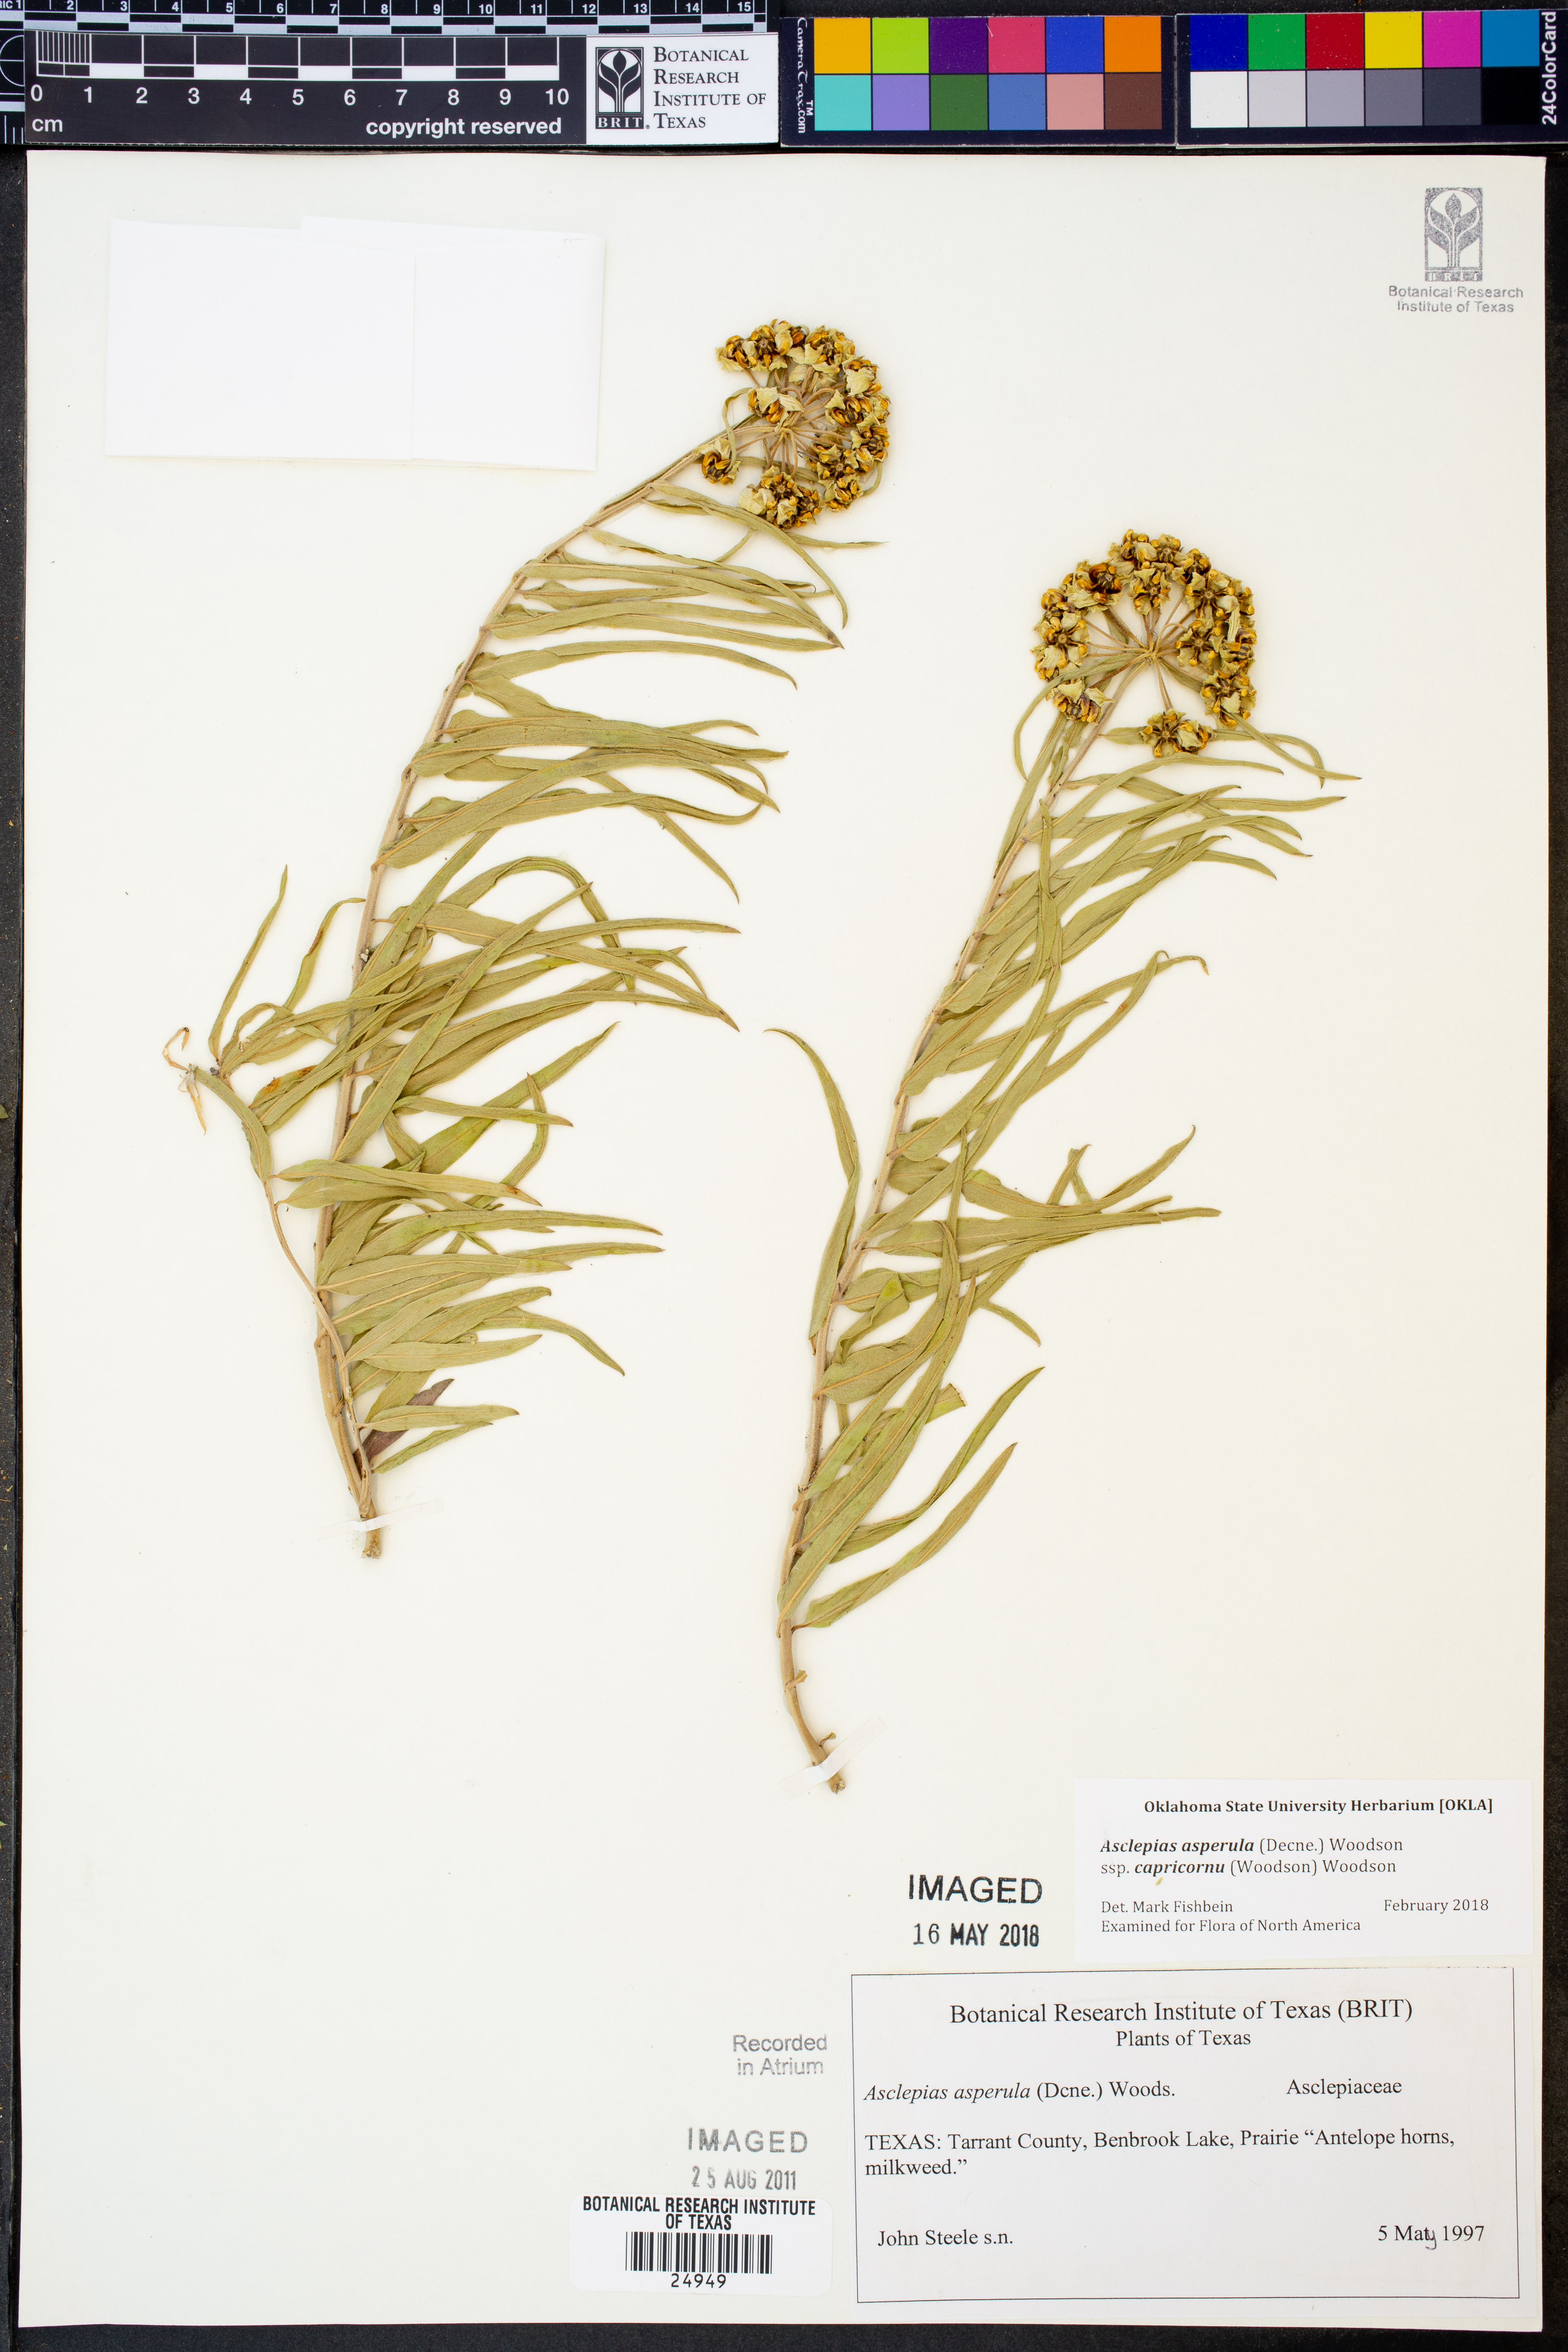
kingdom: Plantae
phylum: Tracheophyta
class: Magnoliopsida
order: Gentianales
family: Apocynaceae
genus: Asclepias
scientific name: Asclepias asperula
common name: Antelope horns
